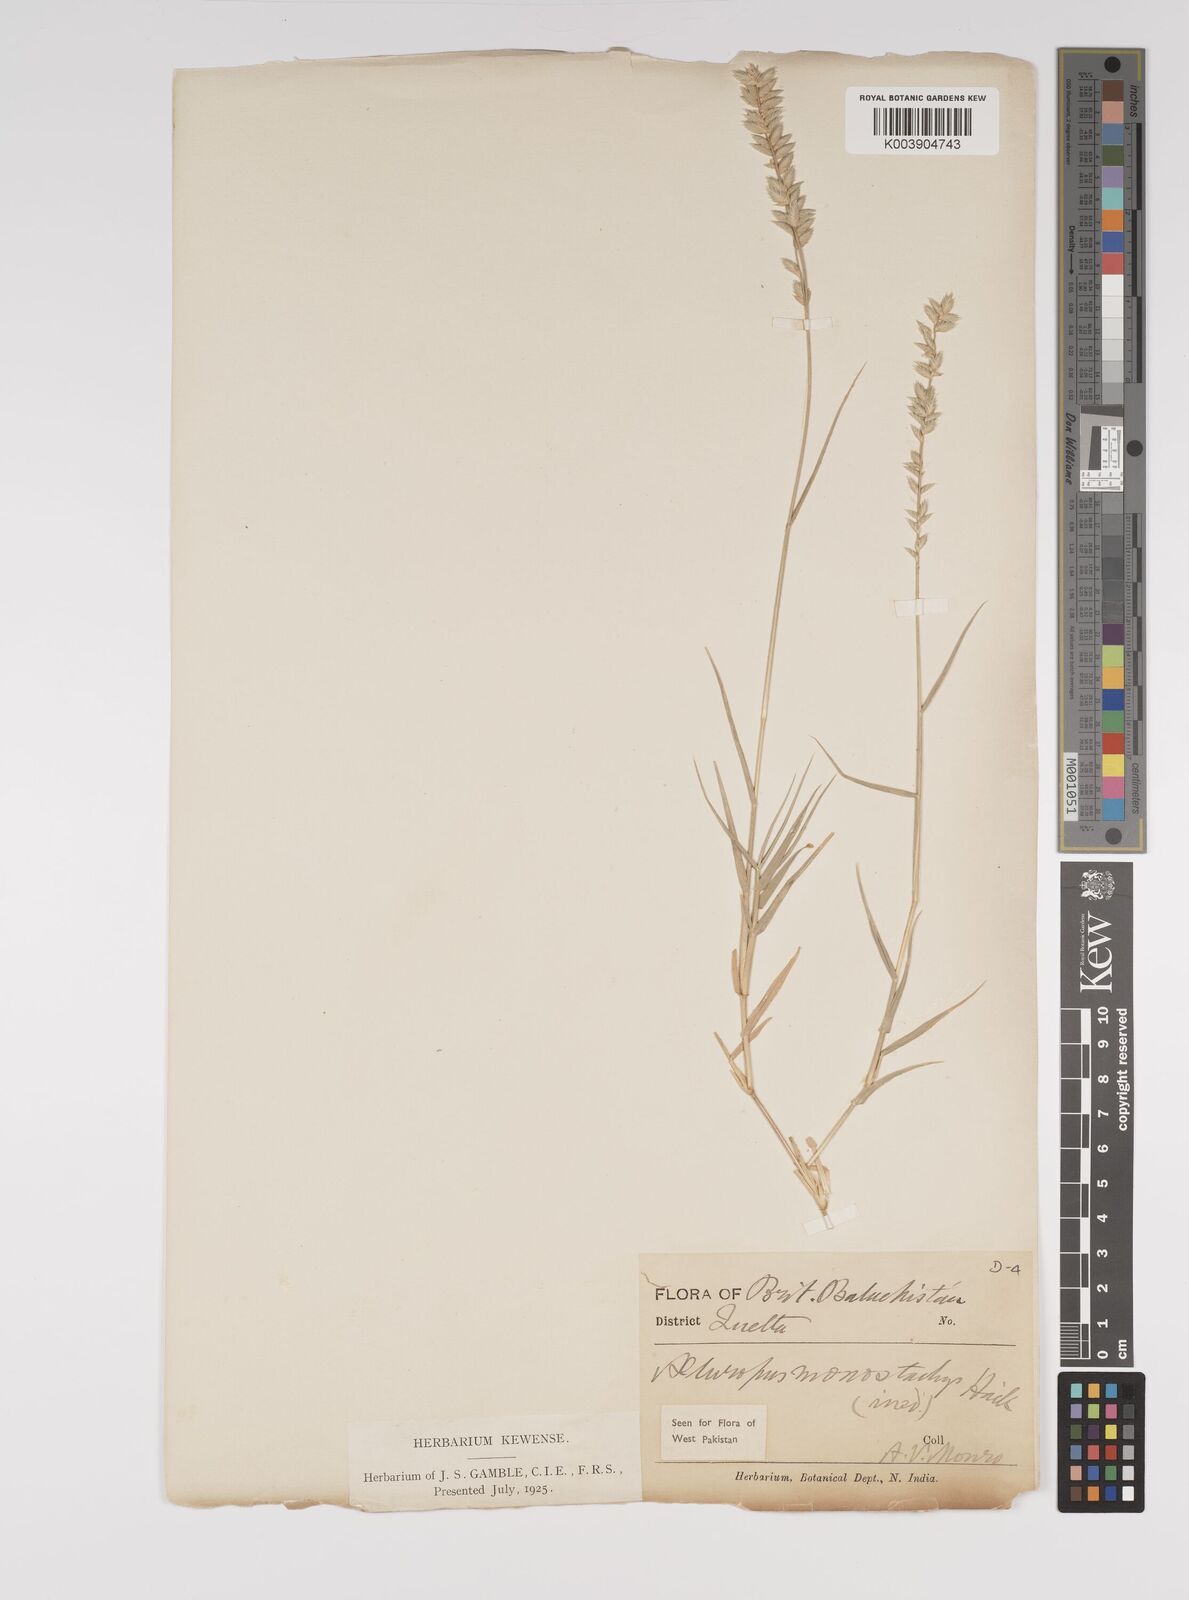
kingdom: Plantae
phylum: Tracheophyta
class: Liliopsida
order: Poales
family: Poaceae
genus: Aeluropus
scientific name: Aeluropus macrostachyus
